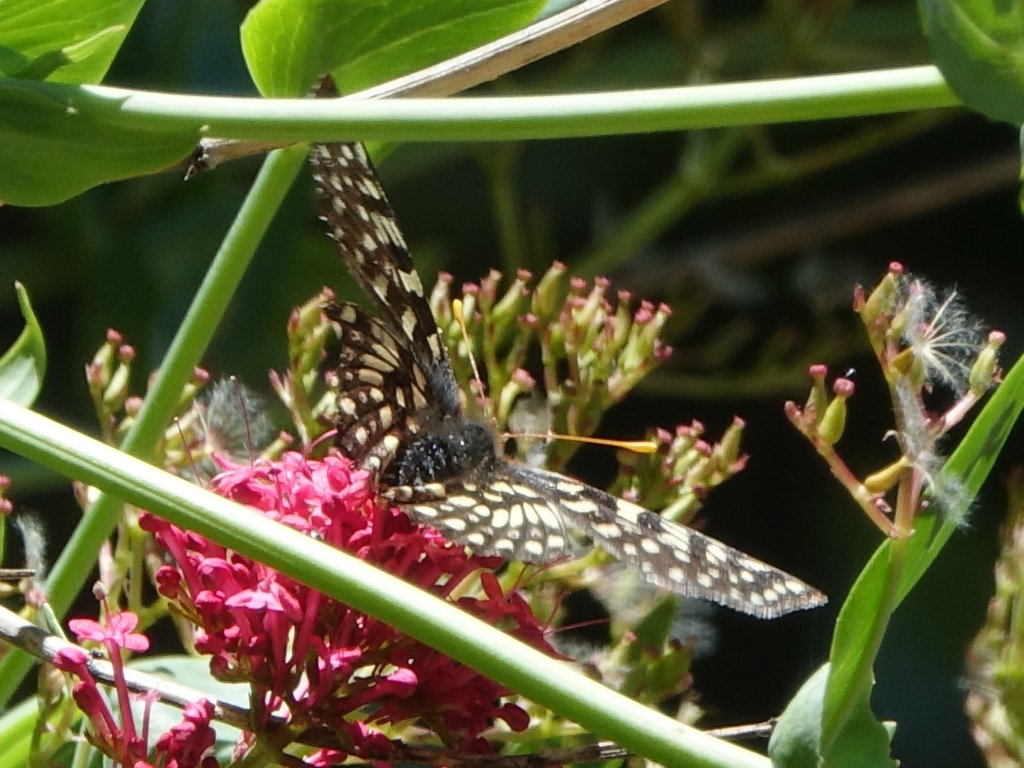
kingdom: Animalia
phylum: Arthropoda
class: Insecta
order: Lepidoptera
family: Nymphalidae
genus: Occidryas
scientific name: Occidryas chalcedona
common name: Chalcedon Checkerspot
